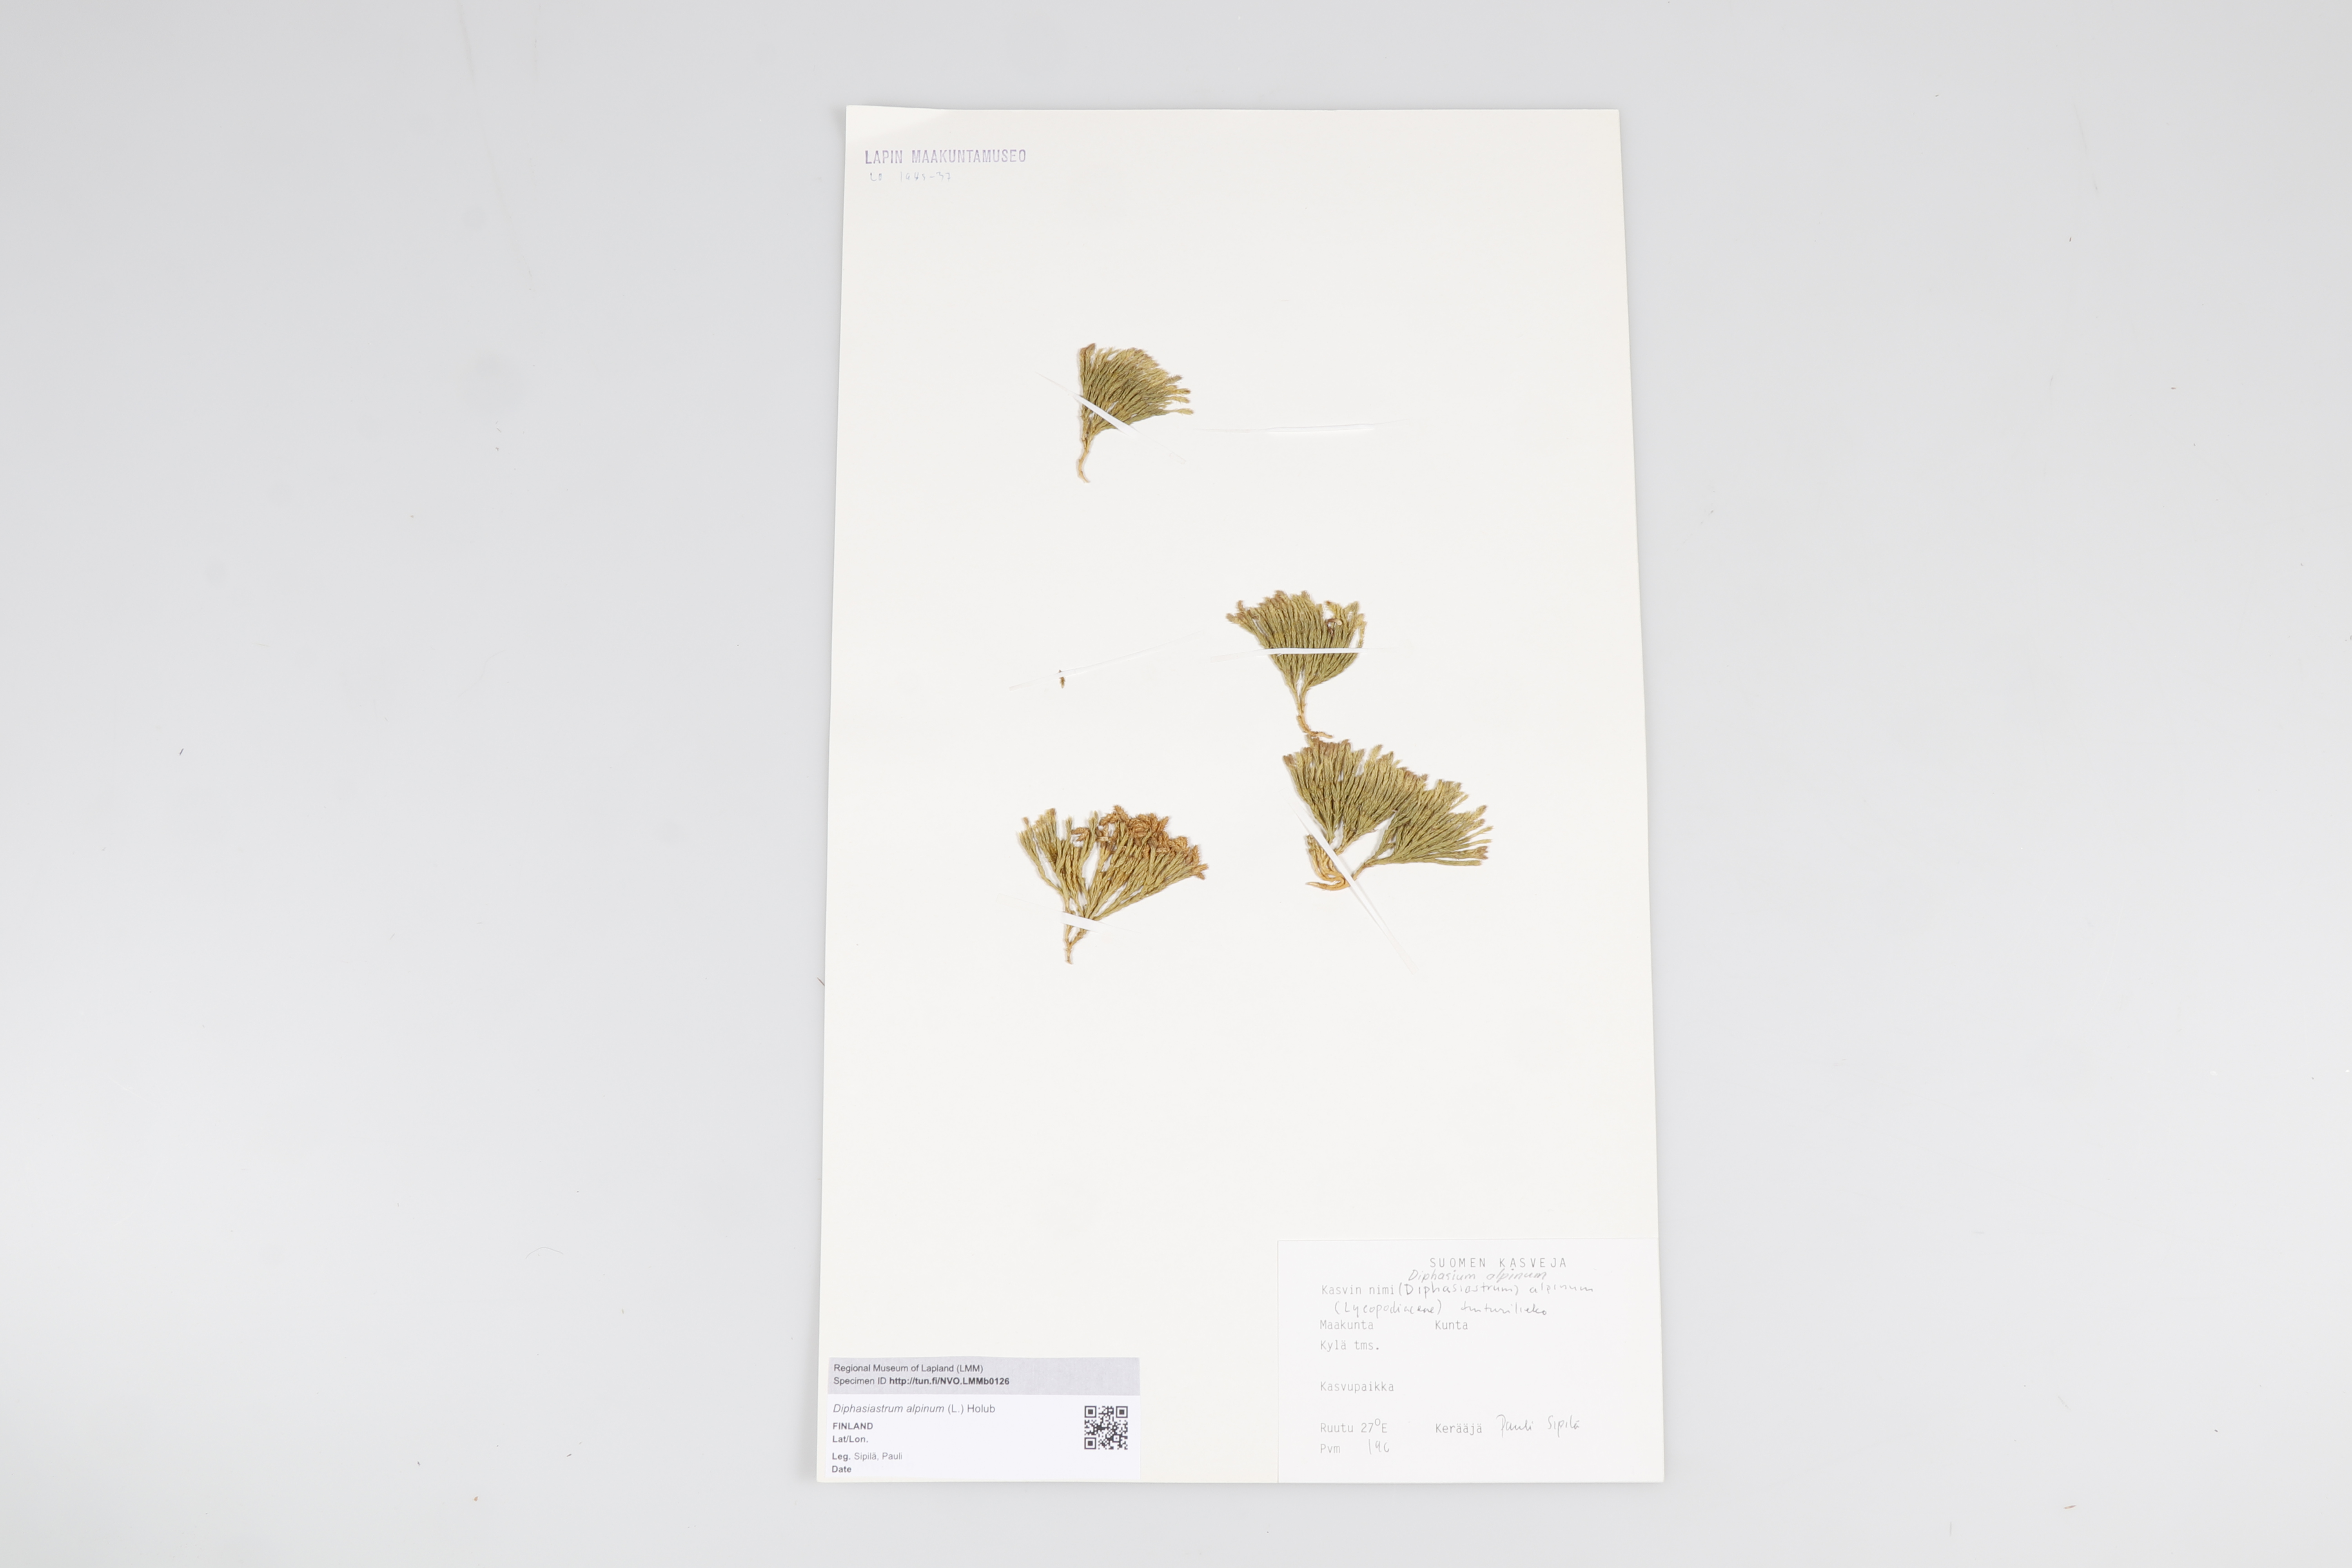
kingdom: Plantae
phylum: Tracheophyta
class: Lycopodiopsida
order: Lycopodiales
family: Lycopodiaceae
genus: Diphasiastrum
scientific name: Diphasiastrum alpinum
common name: Alpine clubmoss
